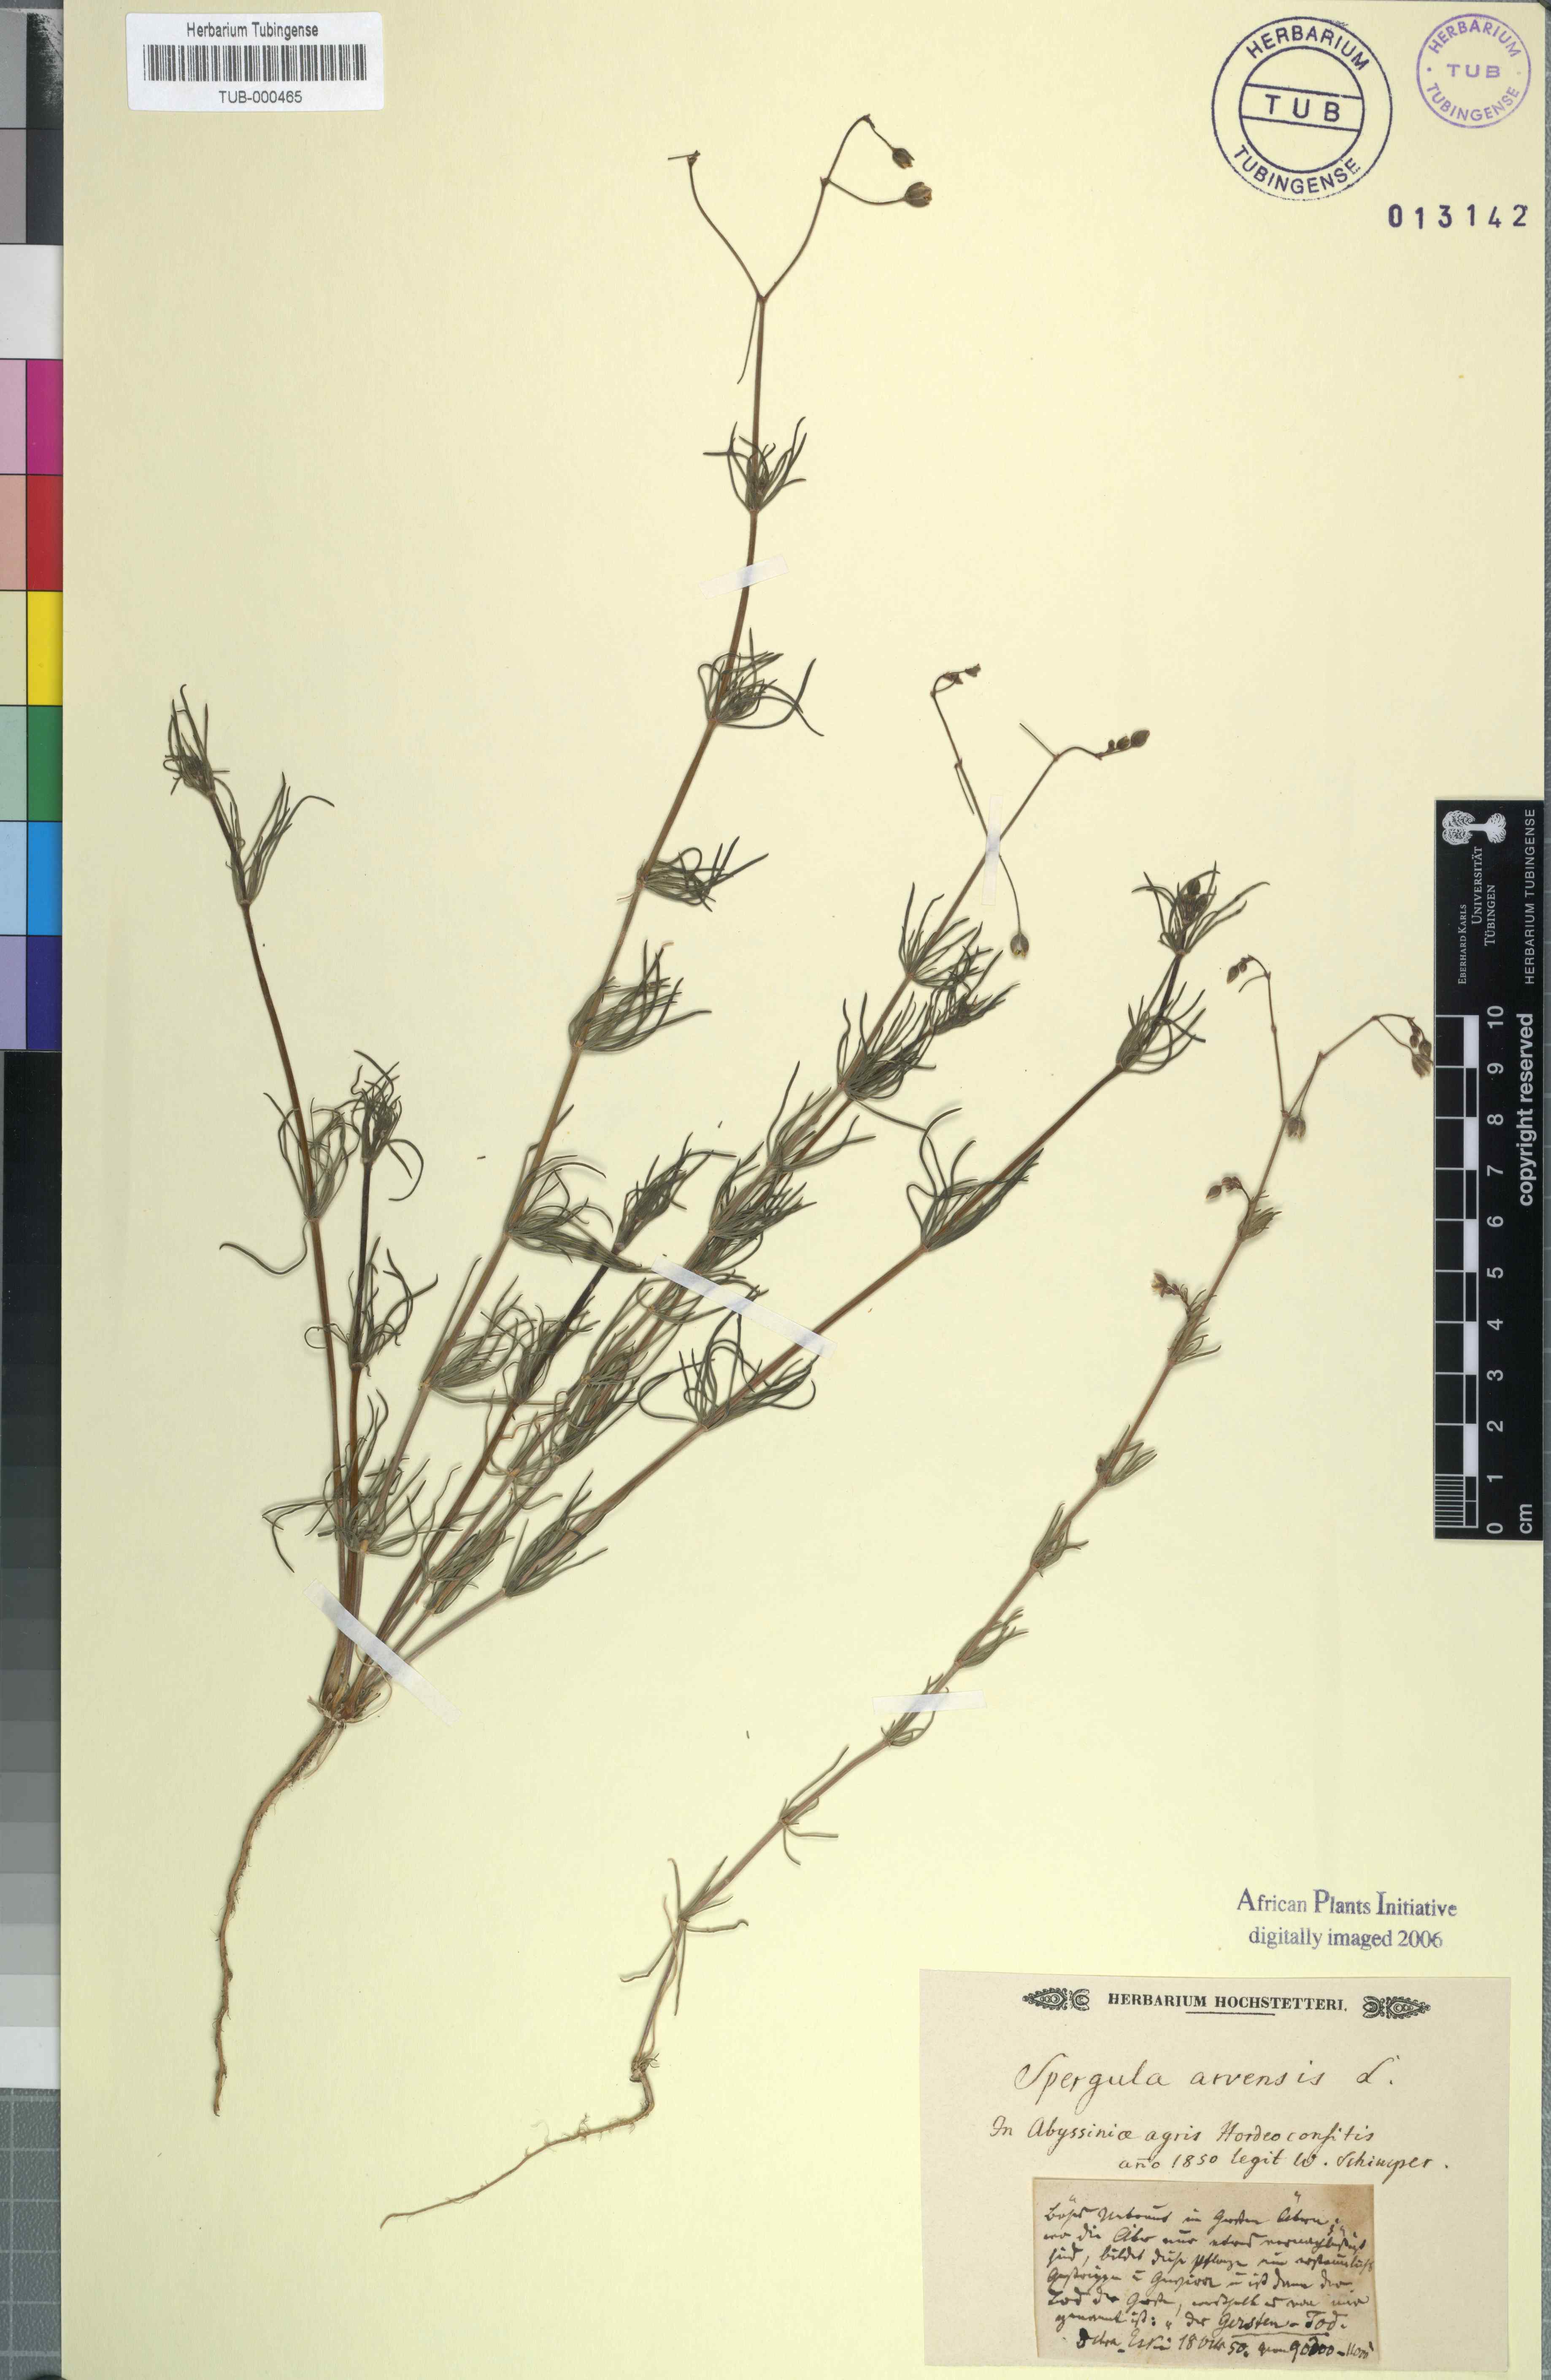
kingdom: Plantae
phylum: Tracheophyta
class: Magnoliopsida
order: Caryophyllales
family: Caryophyllaceae
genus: Spergula
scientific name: Spergula arvensis
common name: Corn spurrey
